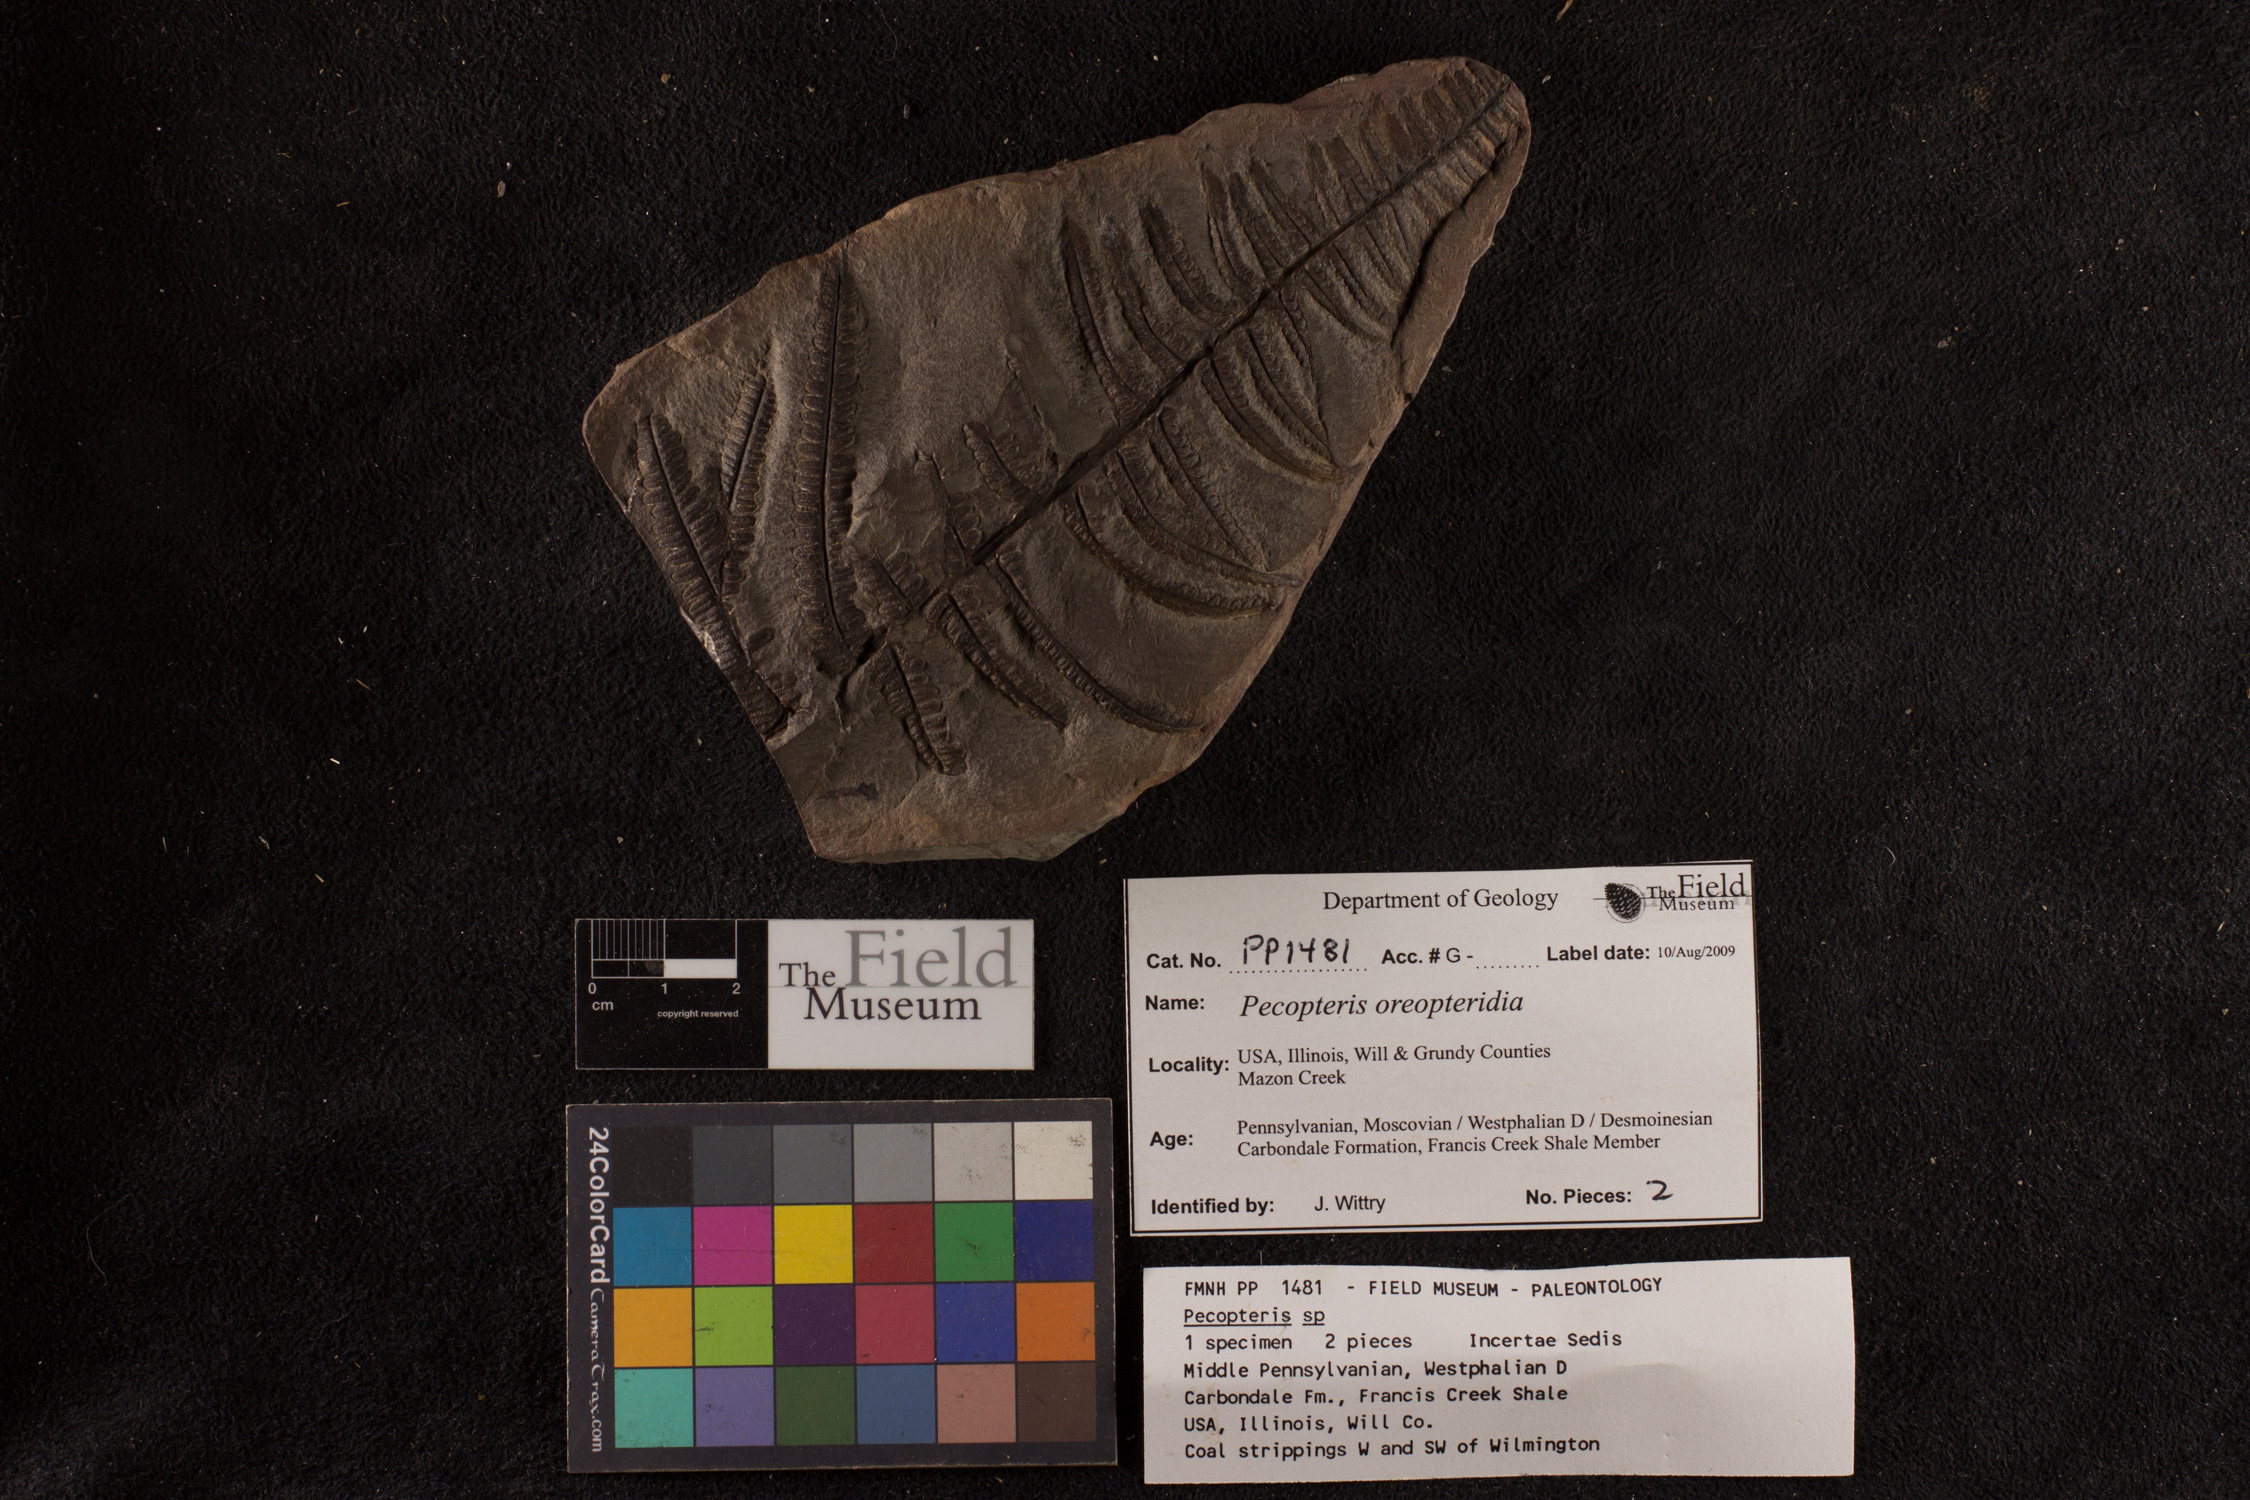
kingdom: Plantae
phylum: Tracheophyta
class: Polypodiopsida
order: Marattiales
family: Asterothecaceae
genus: Pecopteris
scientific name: Pecopteris
